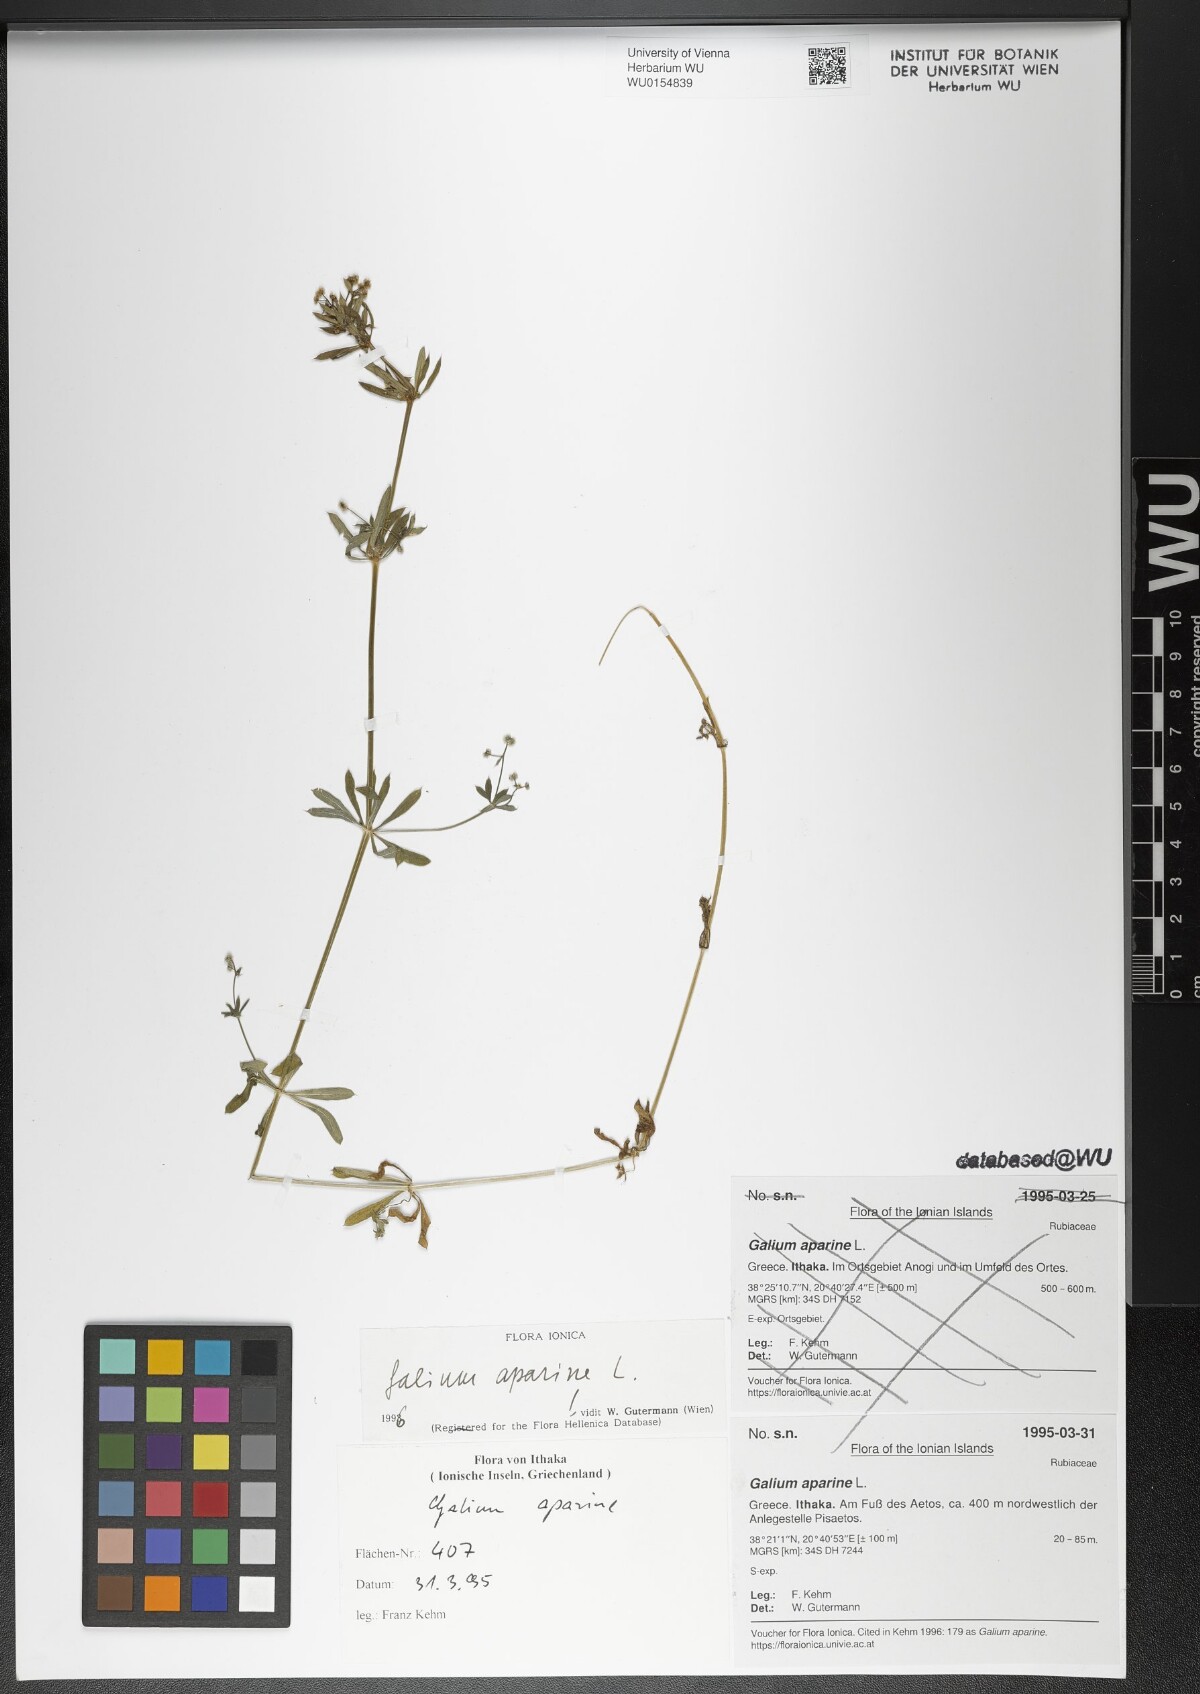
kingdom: Plantae
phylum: Tracheophyta
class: Magnoliopsida
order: Gentianales
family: Rubiaceae
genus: Galium
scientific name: Galium aparine
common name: Cleavers
